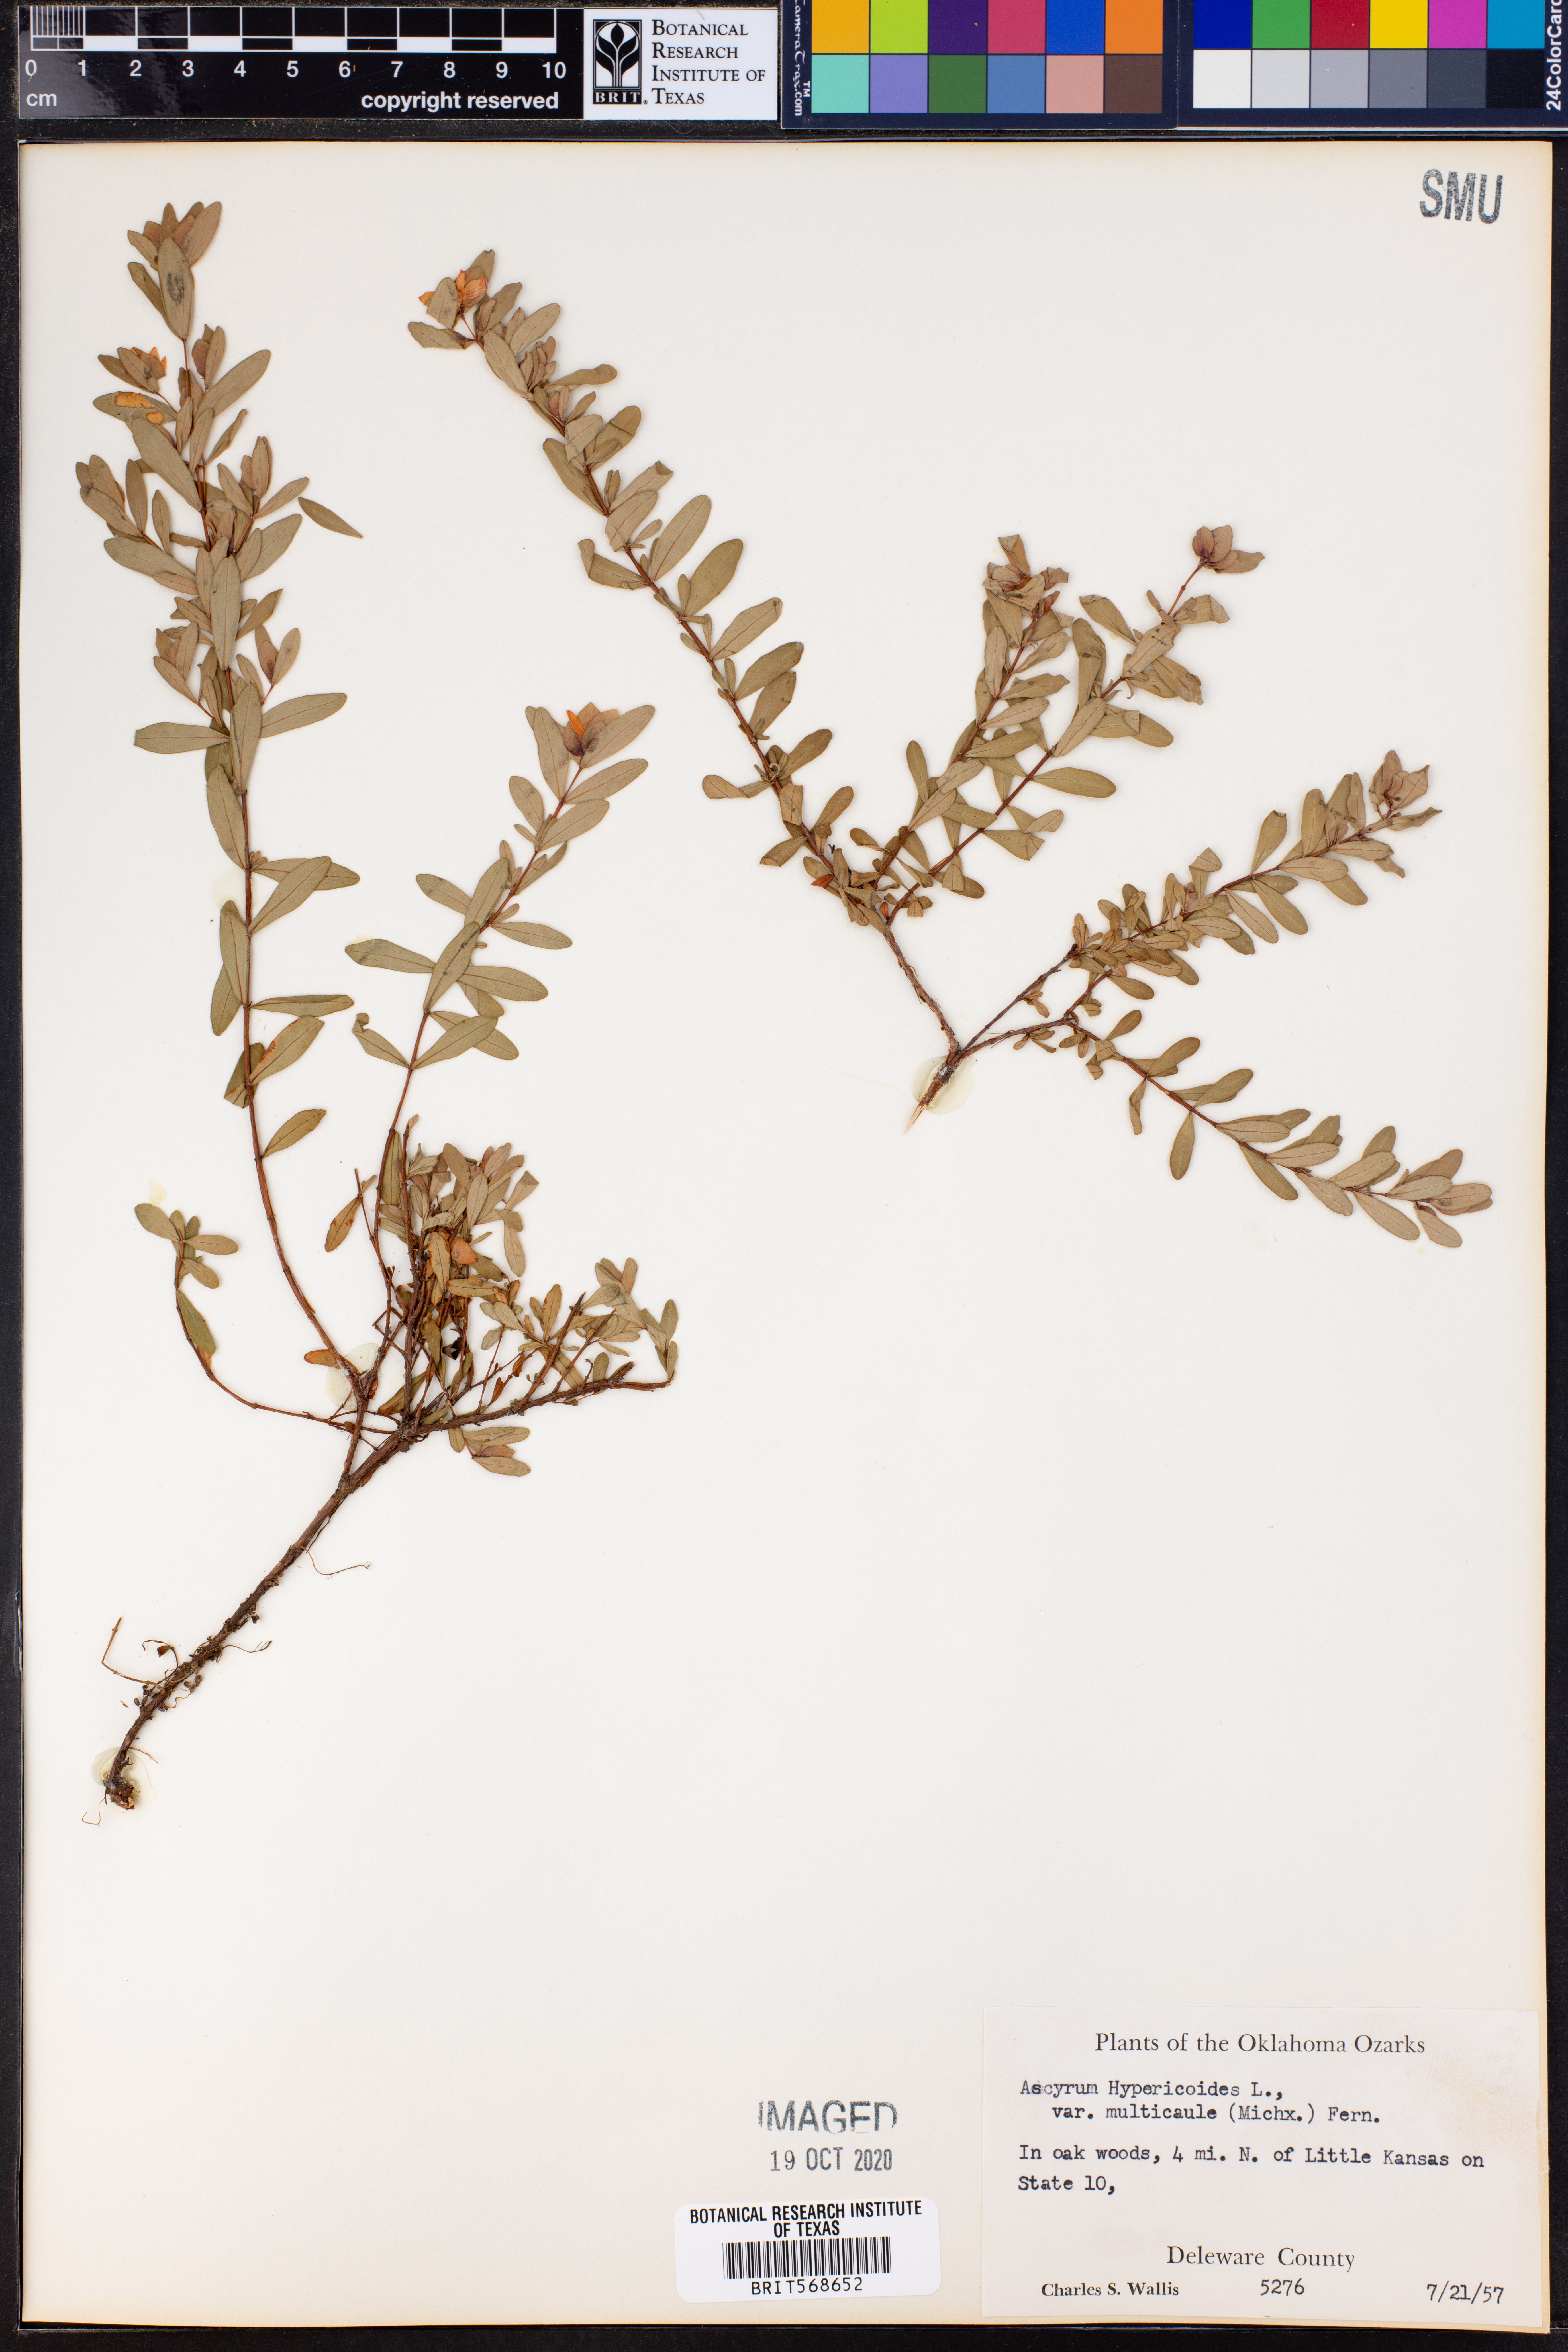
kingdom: Plantae
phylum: Tracheophyta
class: Magnoliopsida
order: Malpighiales
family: Hypericaceae
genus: Hypericum
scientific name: Hypericum hypericoides
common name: St. andrew's cross
